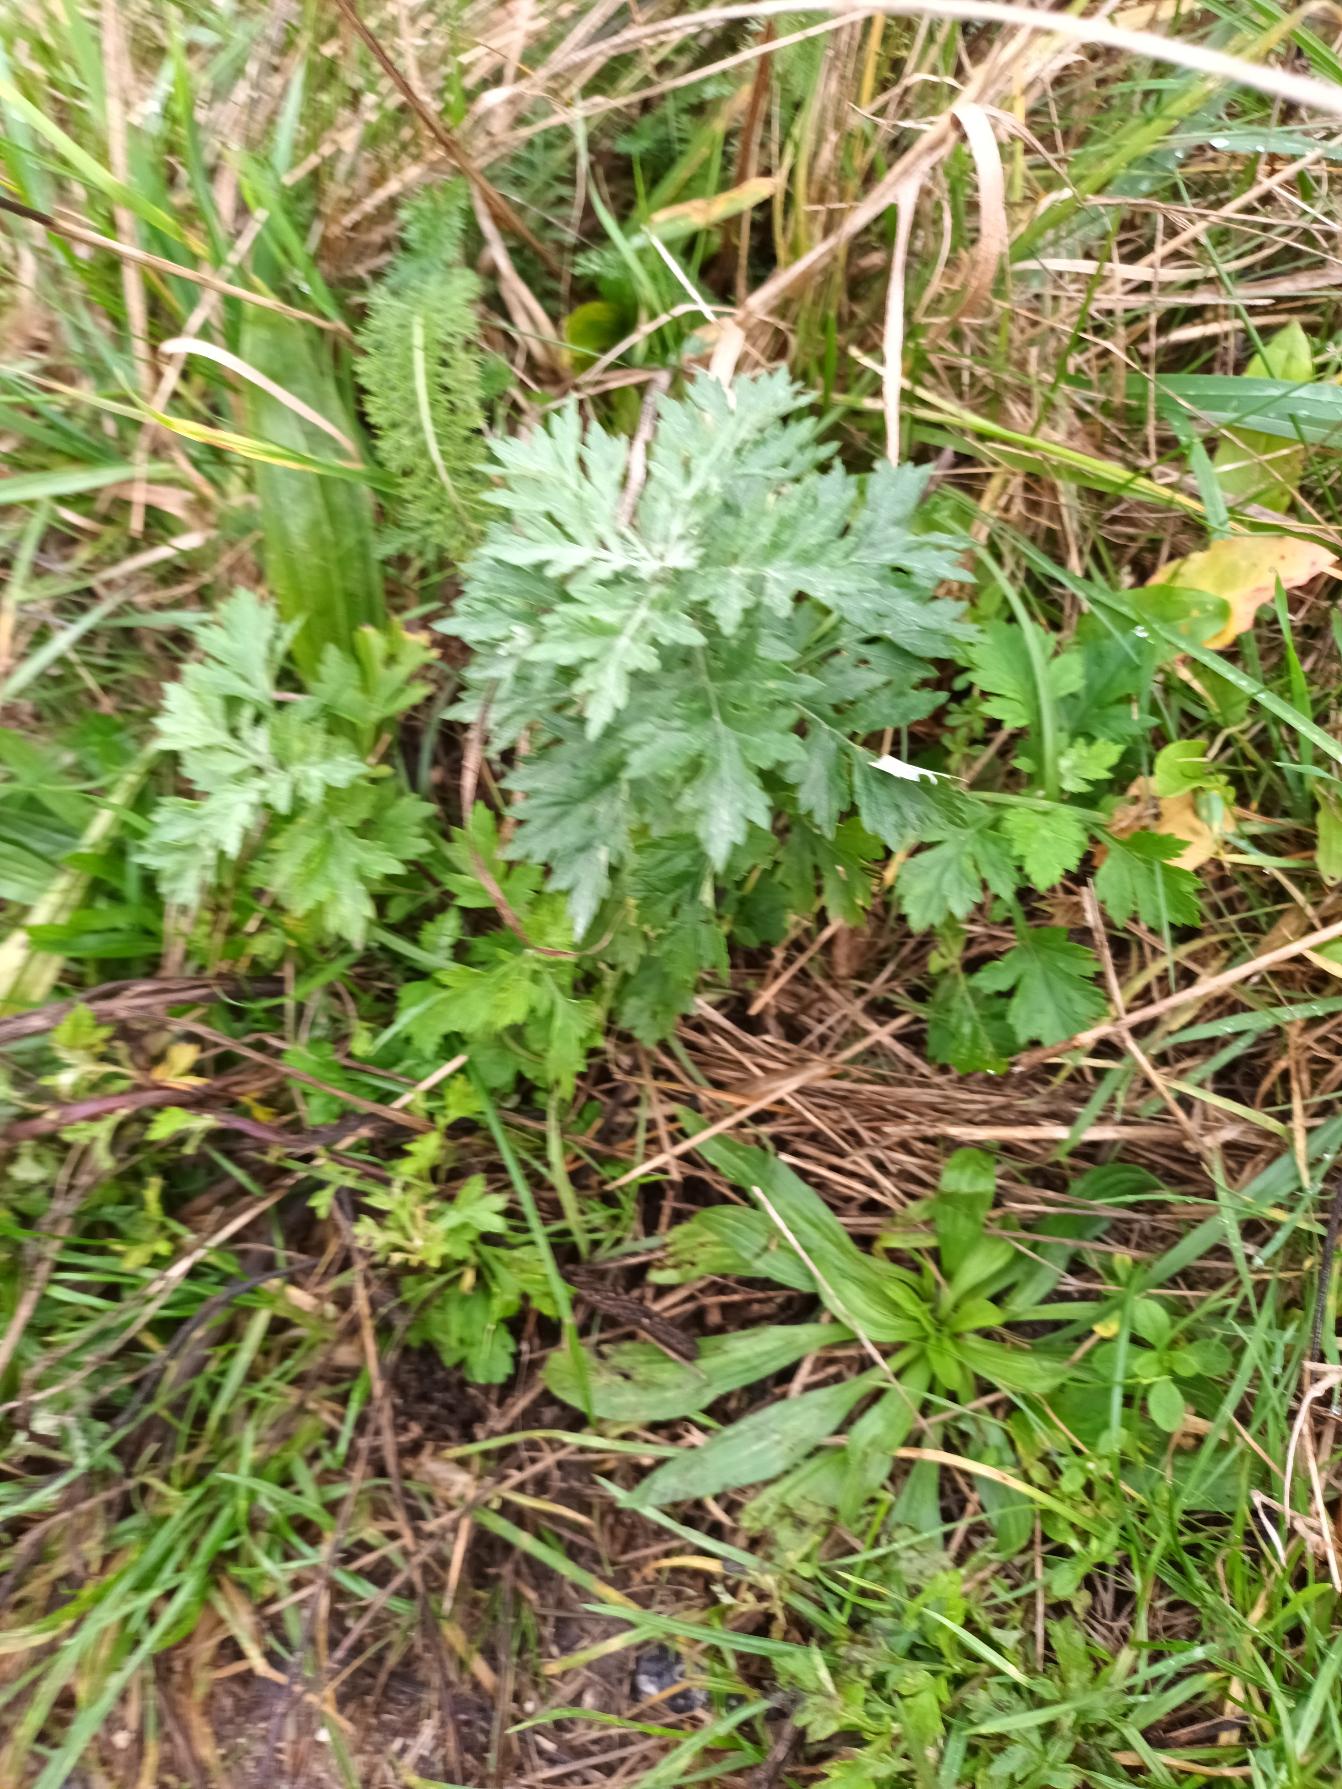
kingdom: Plantae
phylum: Tracheophyta
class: Magnoliopsida
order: Asterales
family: Asteraceae
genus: Artemisia
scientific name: Artemisia vulgaris
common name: Grå-bynke
